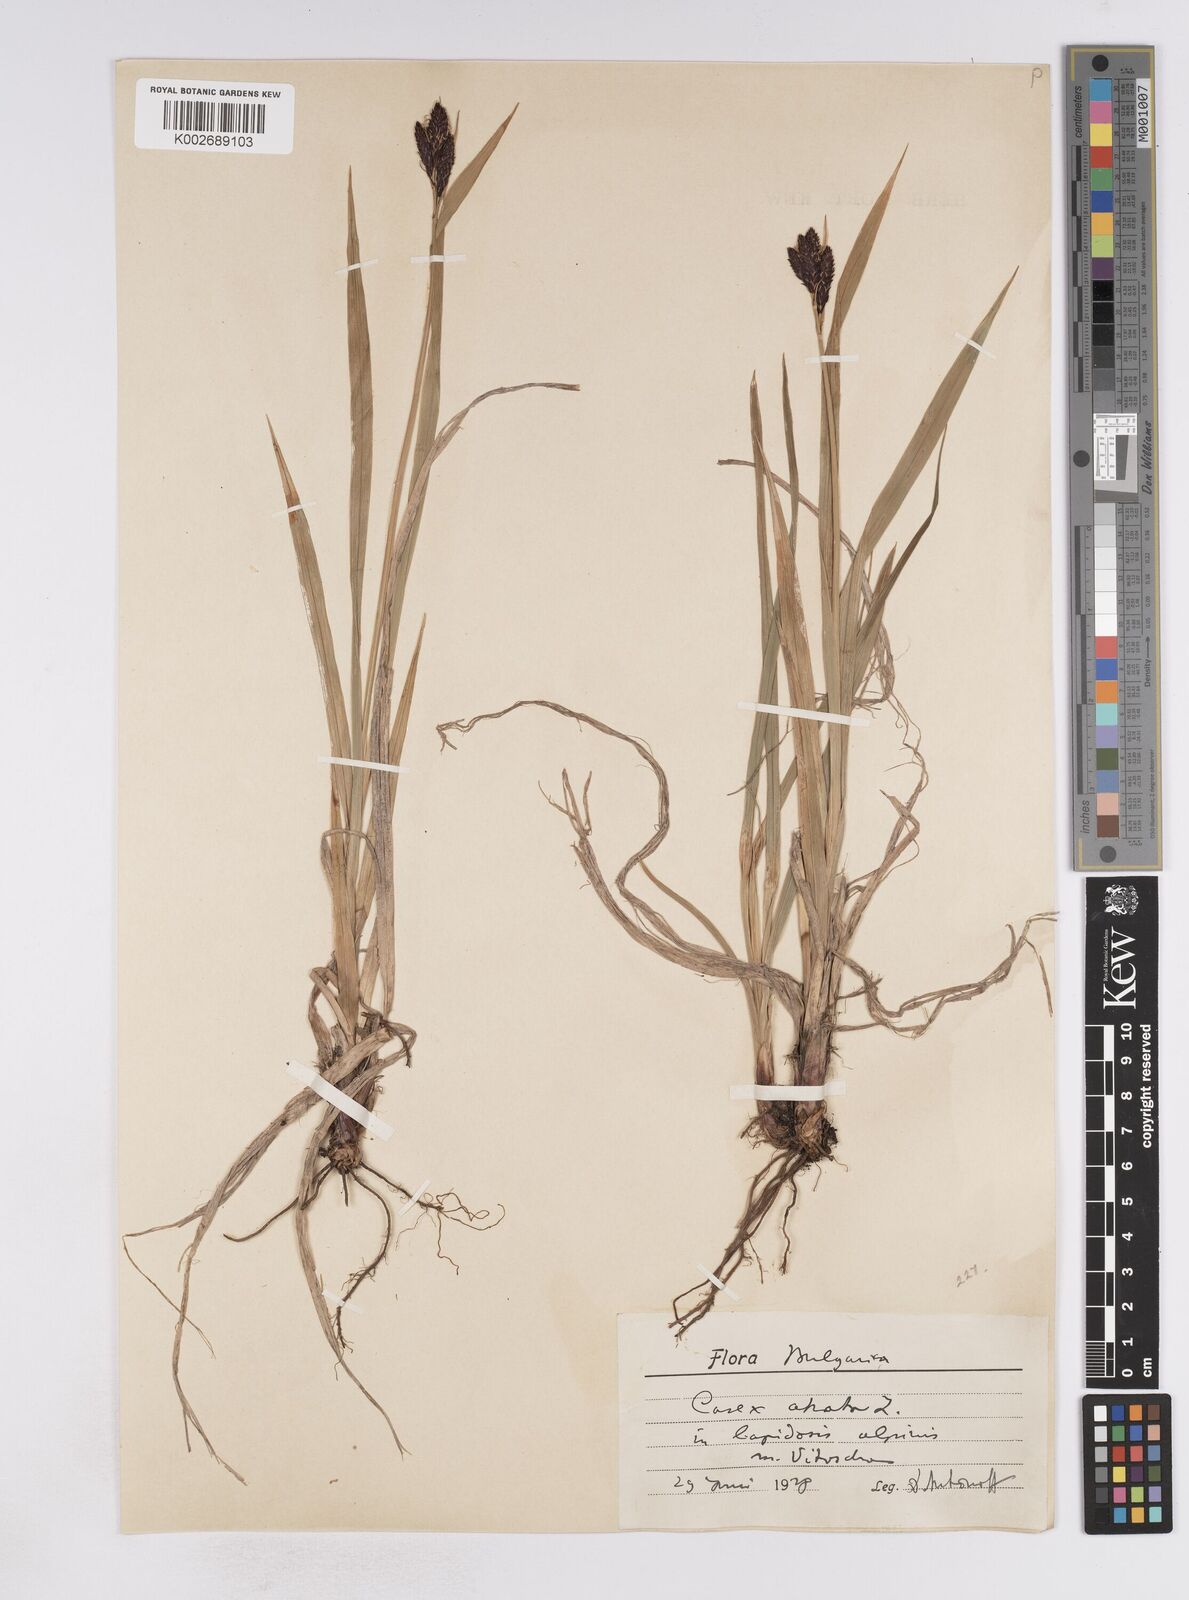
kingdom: Plantae
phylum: Tracheophyta
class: Liliopsida
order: Poales
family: Cyperaceae
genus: Carex
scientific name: Carex atrata
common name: Black alpine sedge
